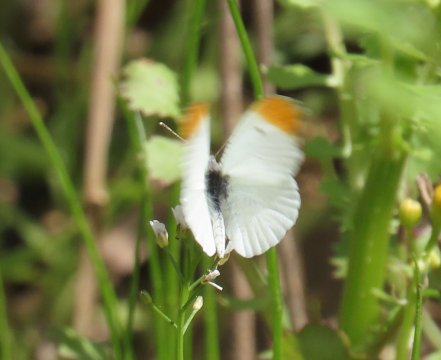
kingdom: Animalia
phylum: Arthropoda
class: Insecta
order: Lepidoptera
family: Pieridae
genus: Anthocharis
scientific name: Anthocharis midea
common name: Falcate Orangetip
